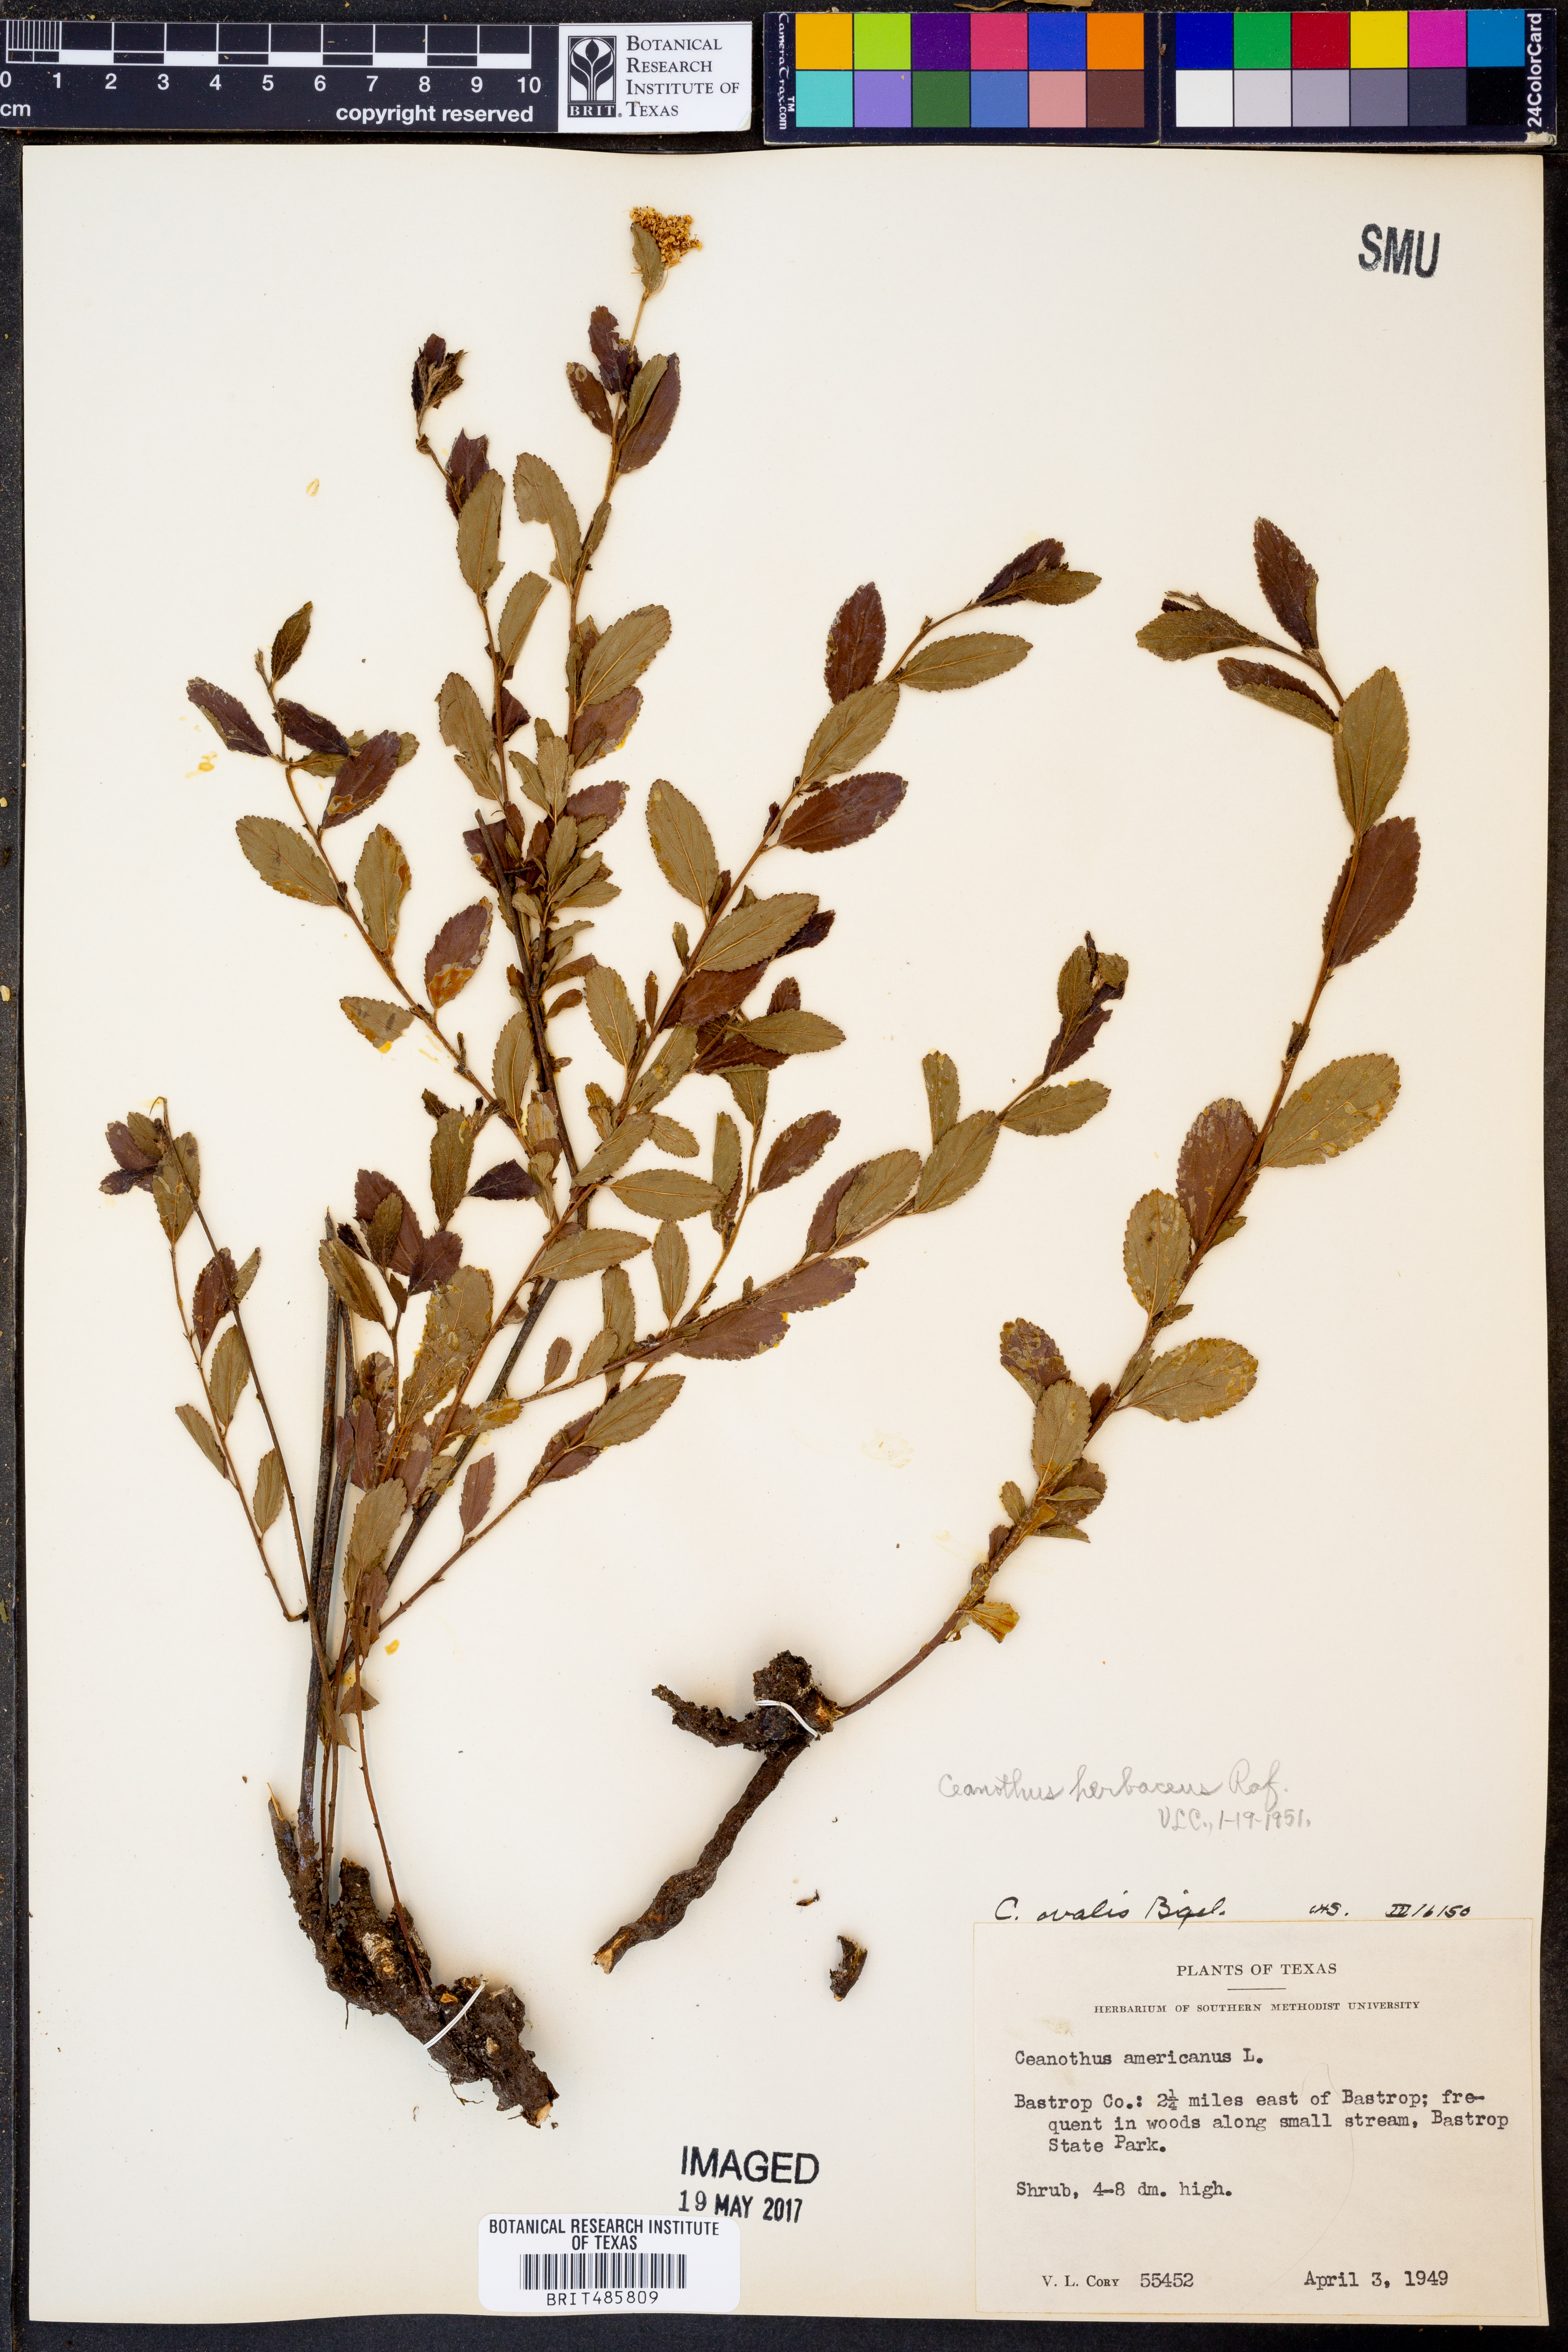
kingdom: Plantae
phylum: Tracheophyta
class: Magnoliopsida
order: Rosales
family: Rhamnaceae
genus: Ceanothus
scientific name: Ceanothus herbaceus
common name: Inland ceanothus
